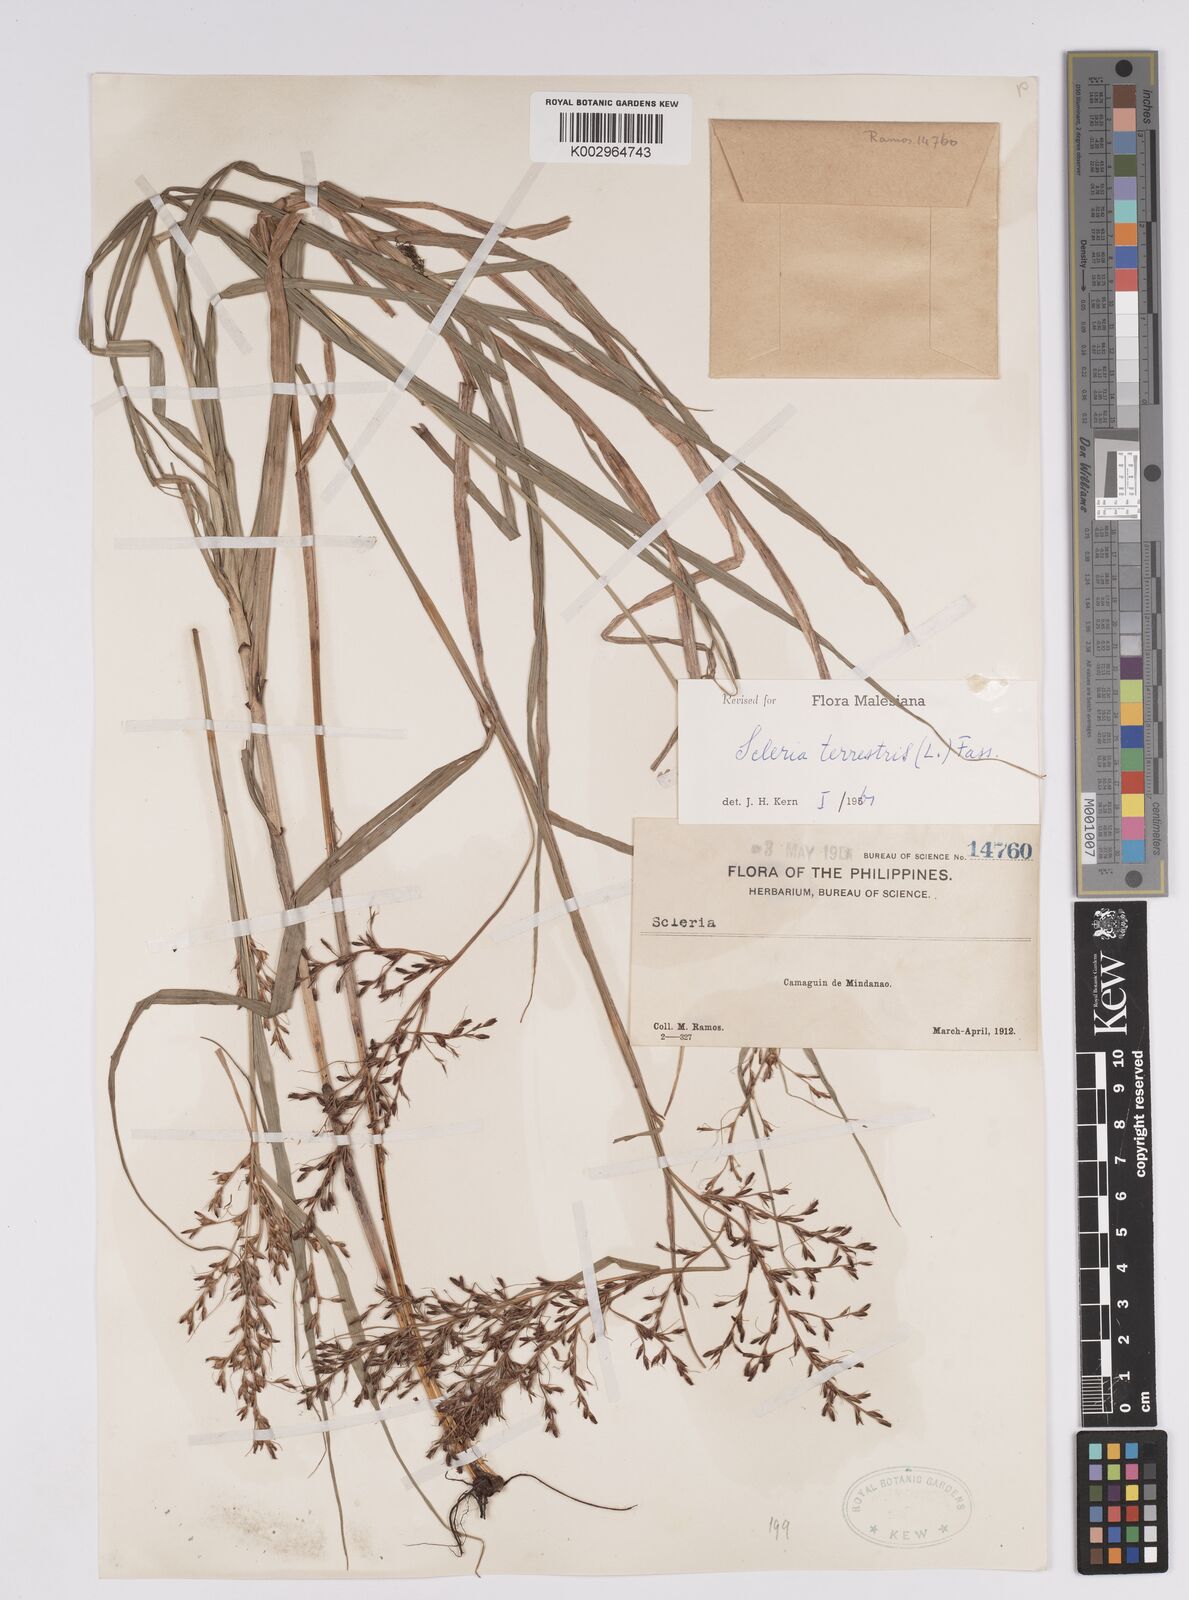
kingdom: Plantae
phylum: Tracheophyta
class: Liliopsida
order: Poales
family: Cyperaceae
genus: Scleria
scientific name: Scleria terrestris
